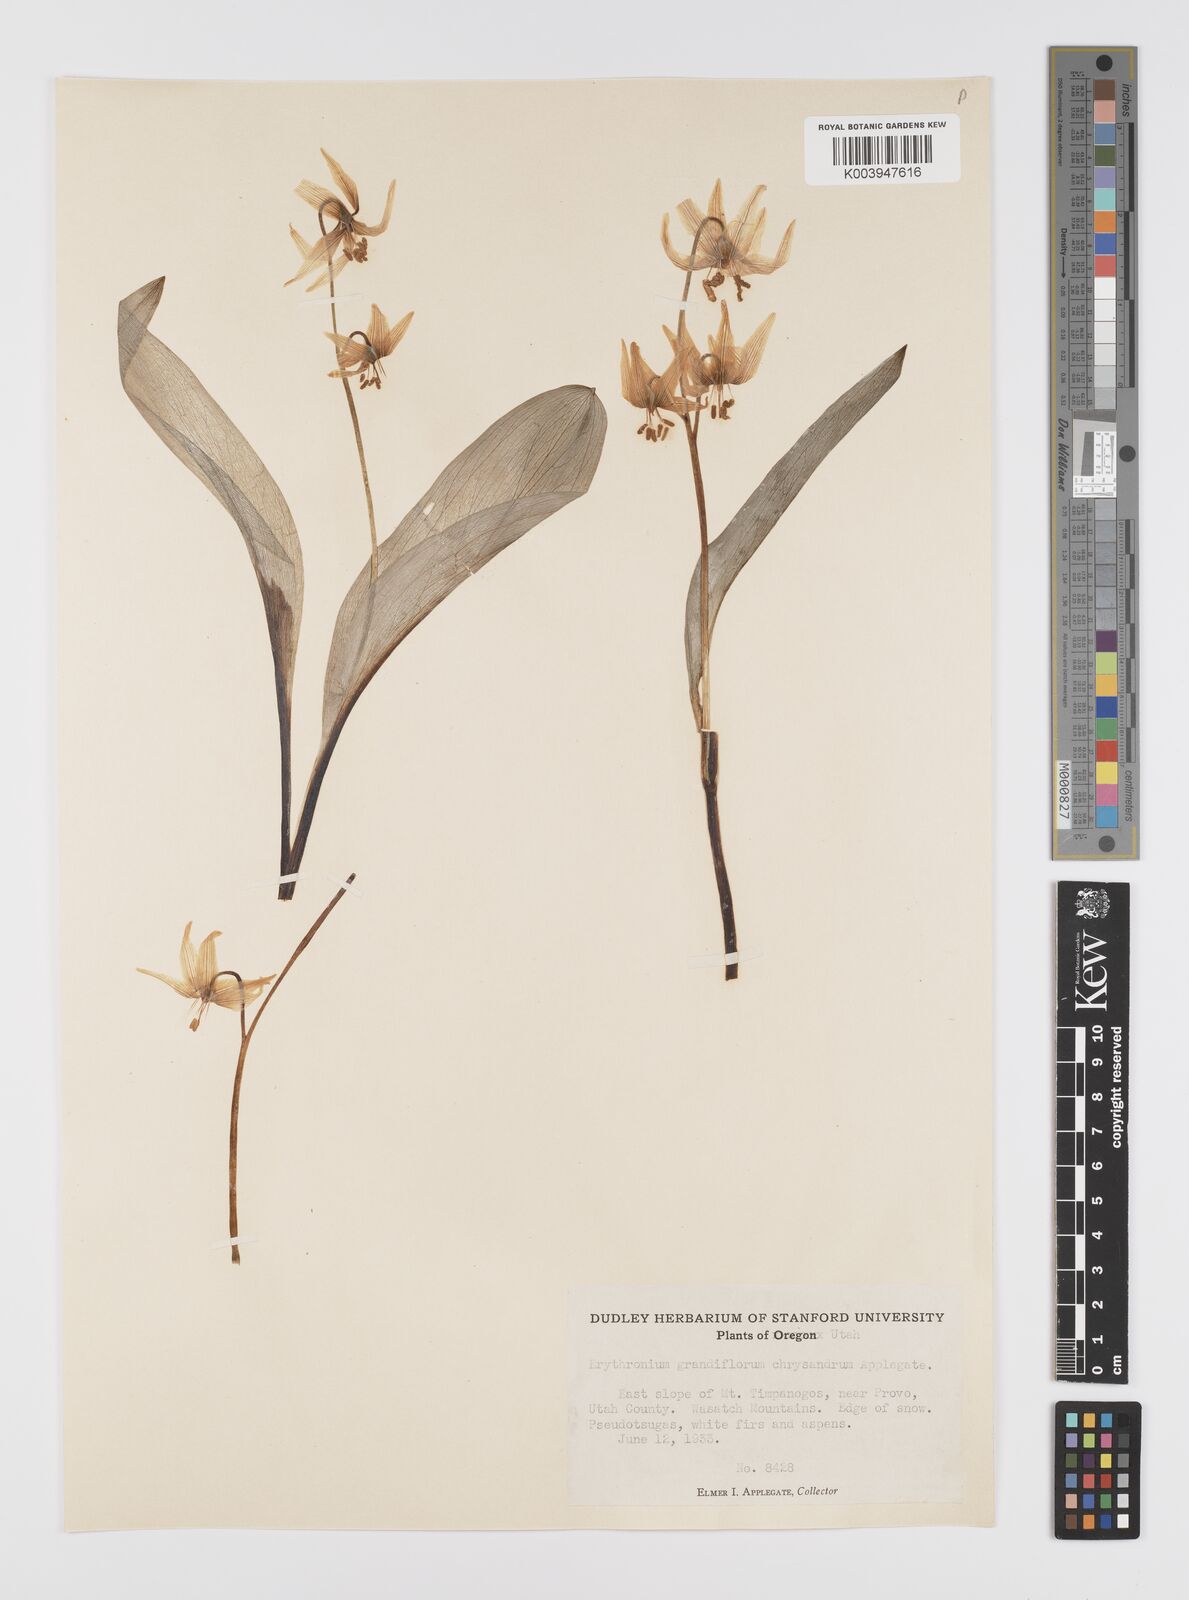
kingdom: Plantae
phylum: Tracheophyta
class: Liliopsida
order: Liliales
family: Liliaceae
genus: Erythronium
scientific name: Erythronium grandiflorum
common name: Avalanche-lily
